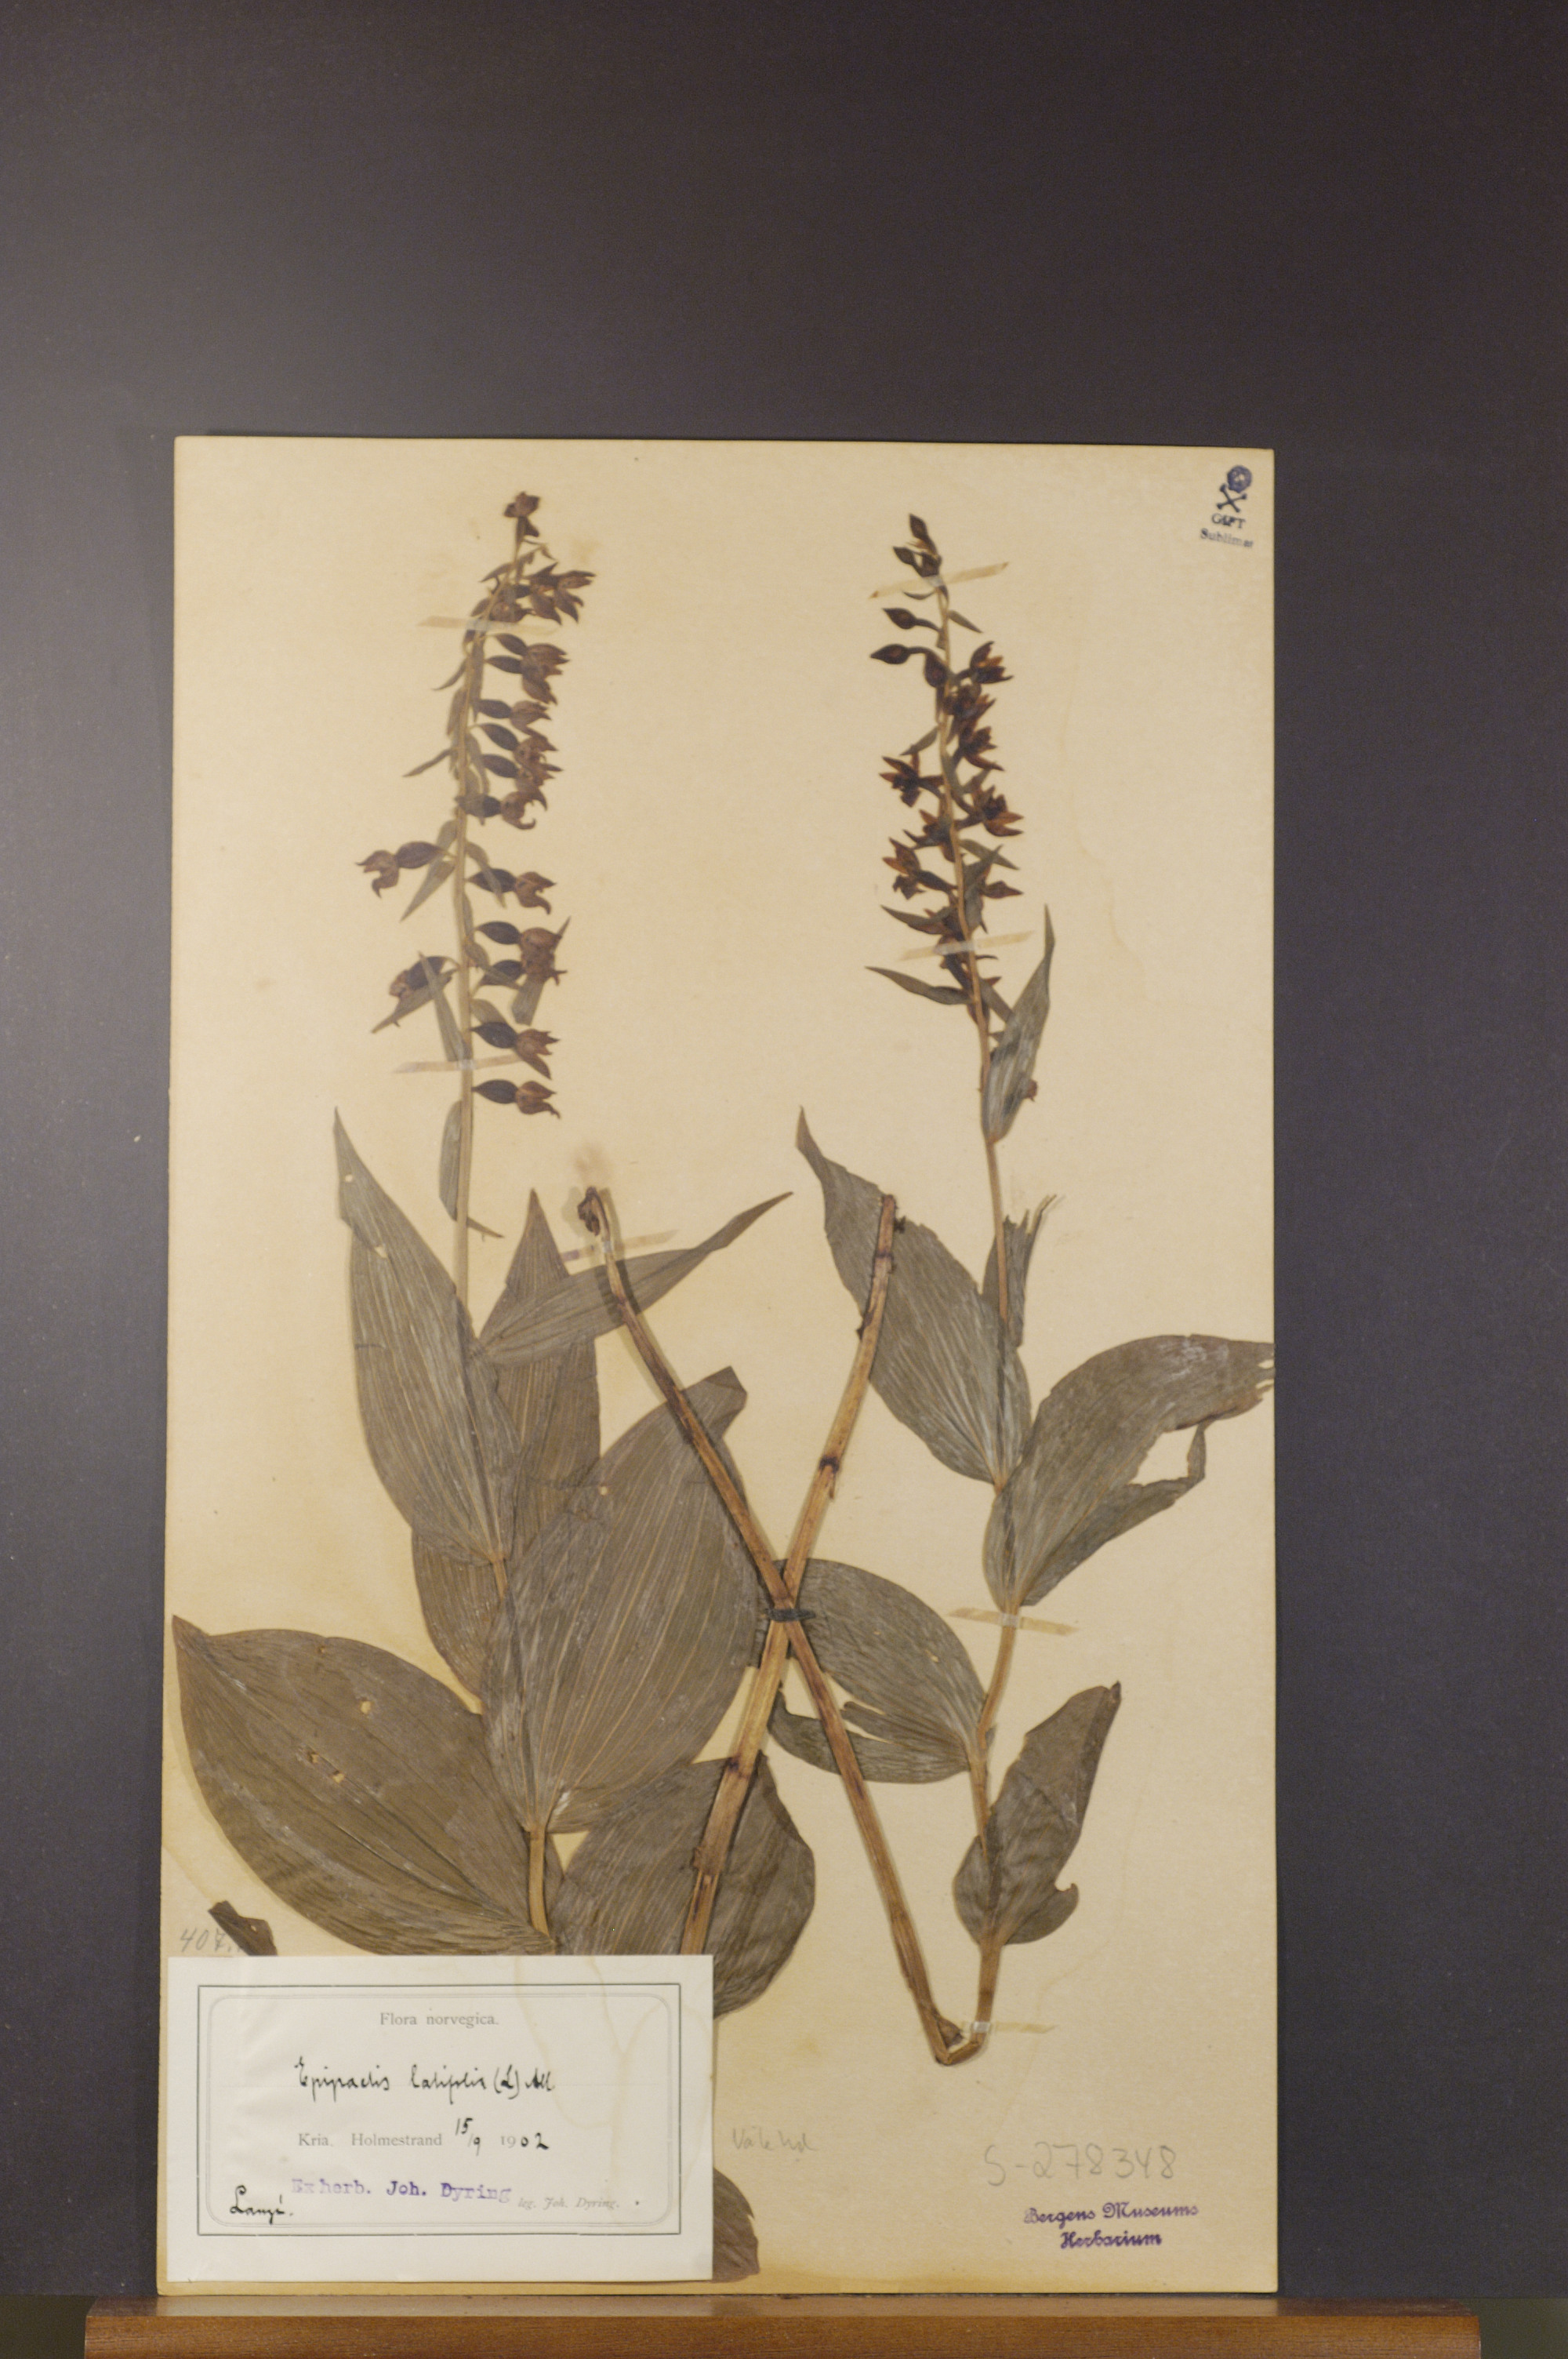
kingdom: Plantae
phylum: Tracheophyta
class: Liliopsida
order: Asparagales
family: Orchidaceae
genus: Epipactis
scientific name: Epipactis helleborine
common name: Broad-leaved helleborine
